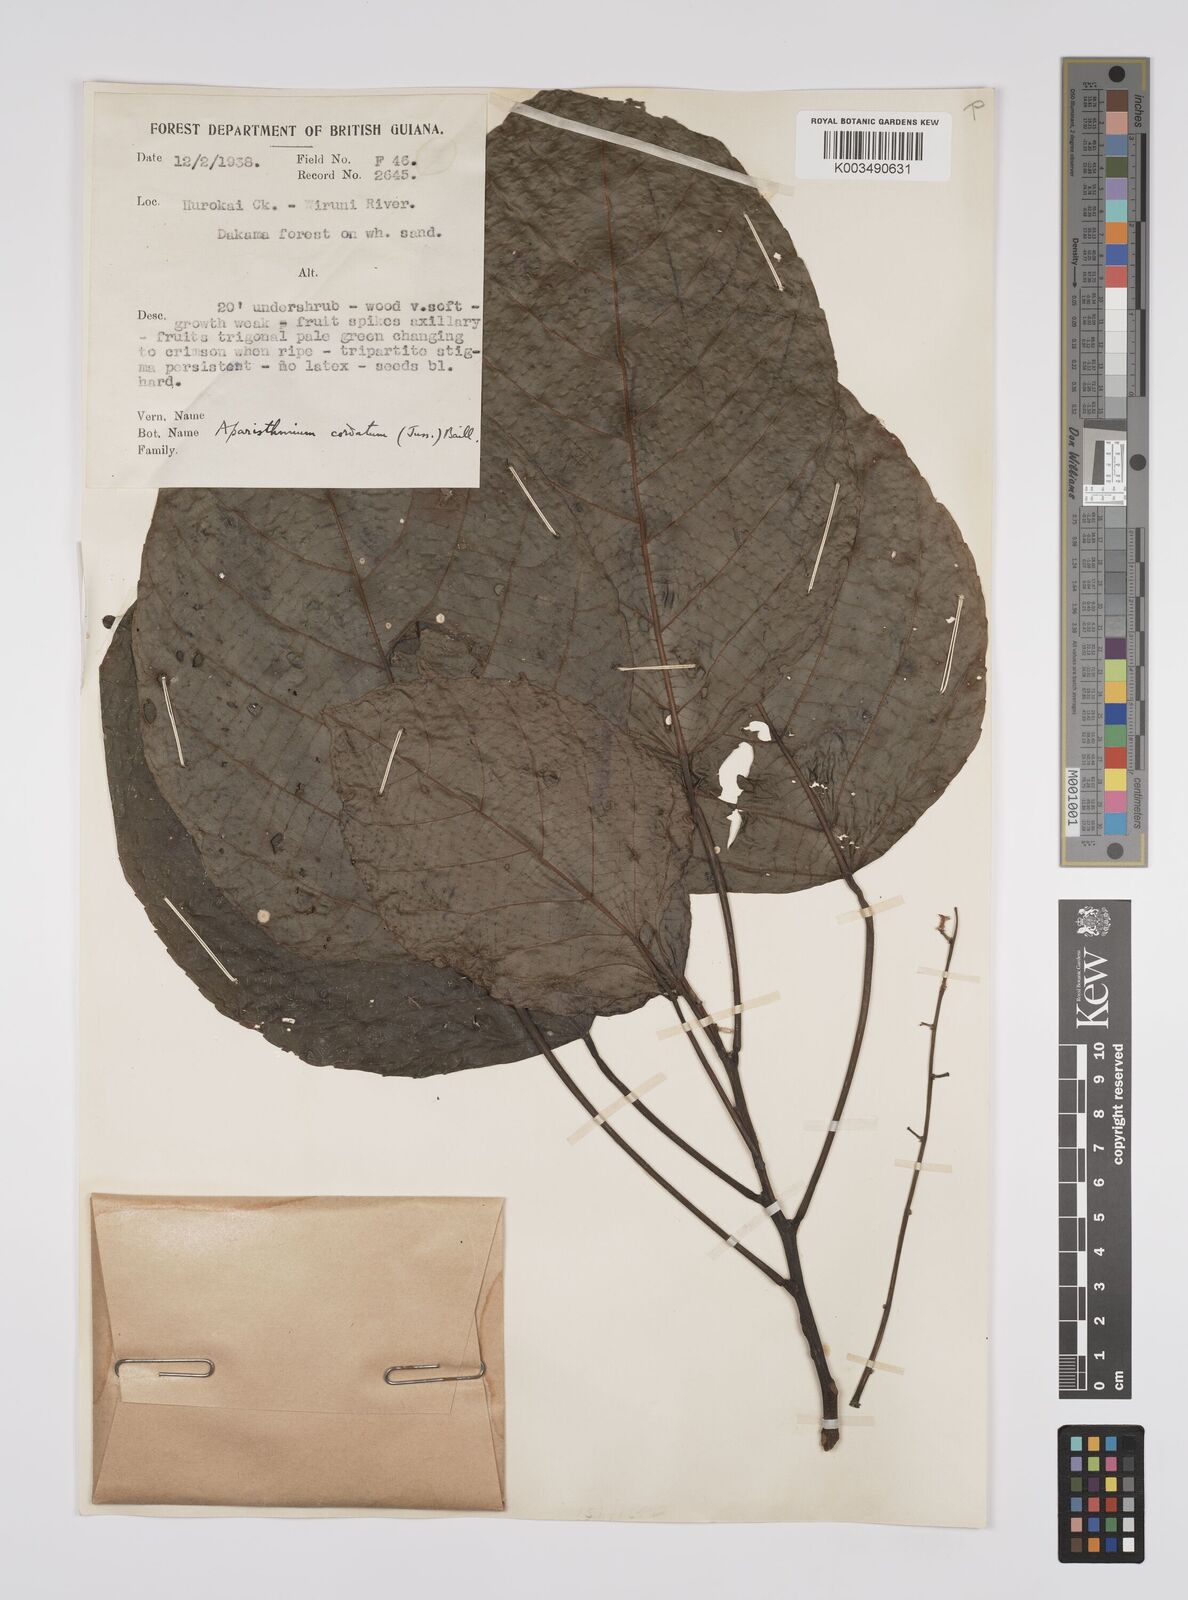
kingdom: Plantae
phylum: Tracheophyta
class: Magnoliopsida
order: Malpighiales
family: Euphorbiaceae
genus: Aparisthmium
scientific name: Aparisthmium cordatum
